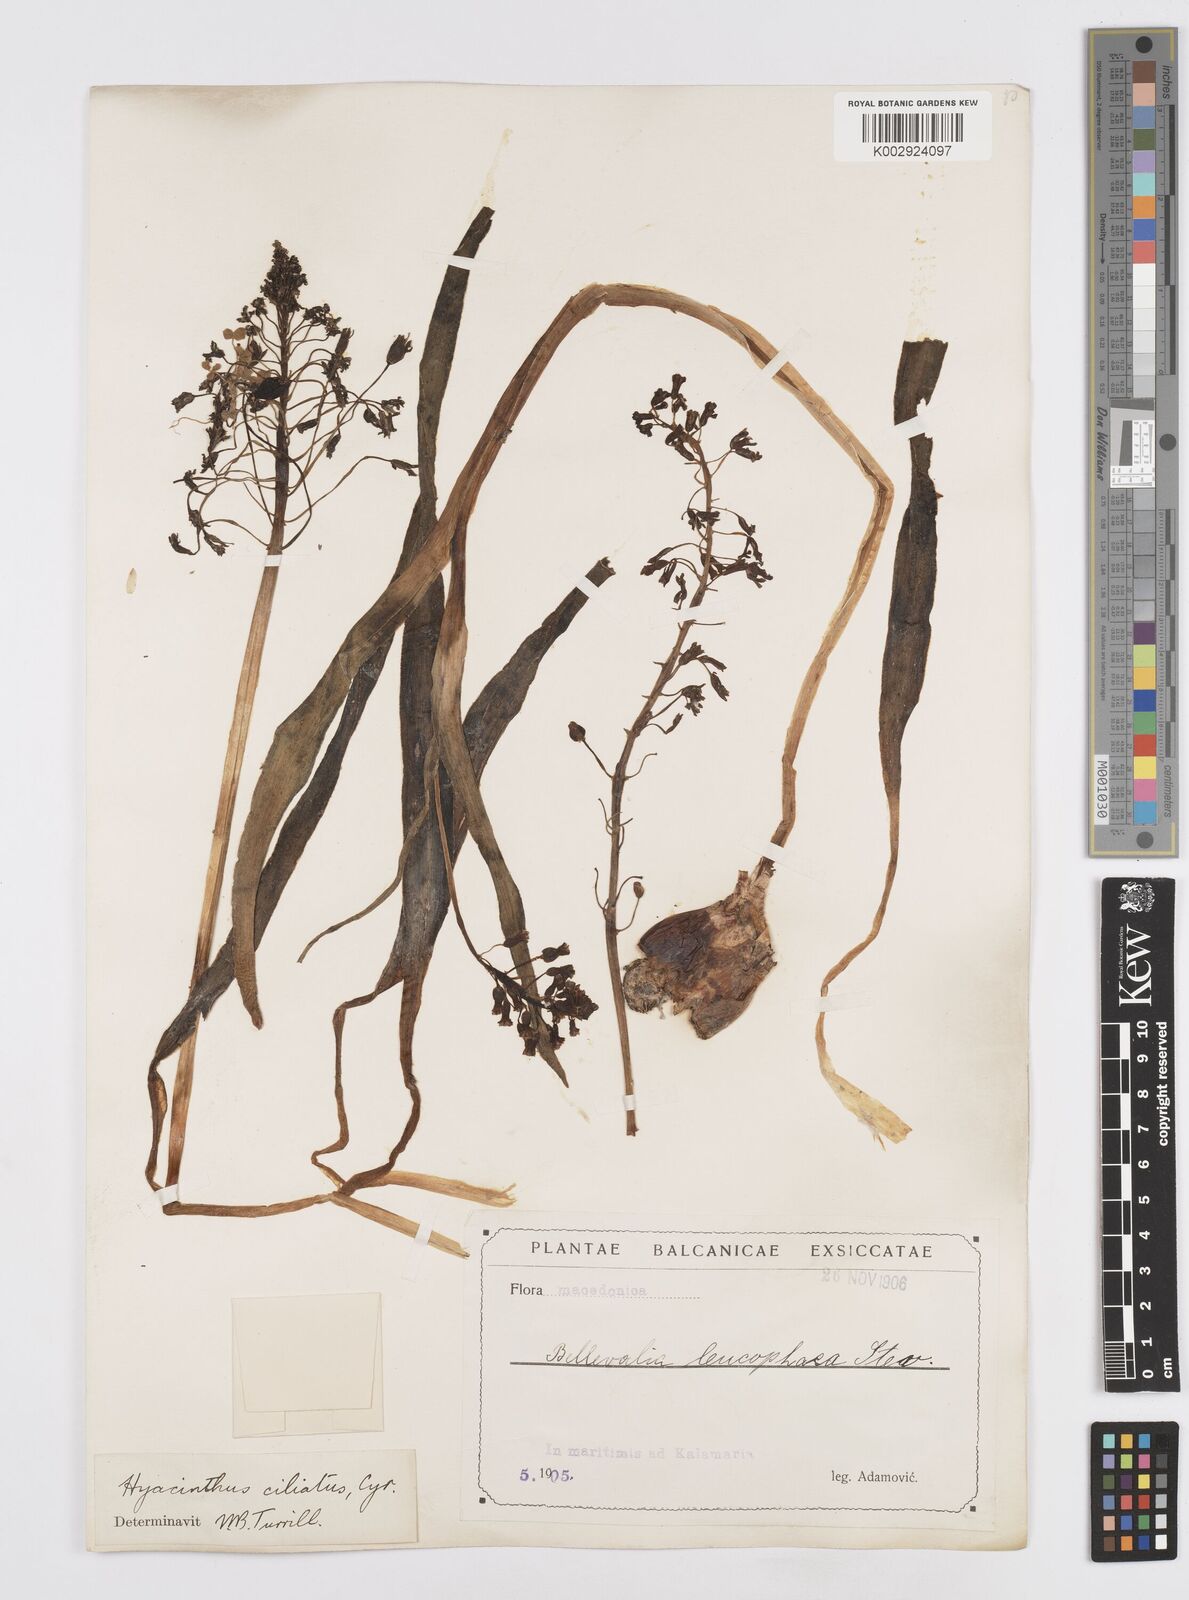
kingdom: Plantae
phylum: Tracheophyta
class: Liliopsida
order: Asparagales
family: Asparagaceae
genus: Bellevalia
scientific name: Bellevalia ciliata
